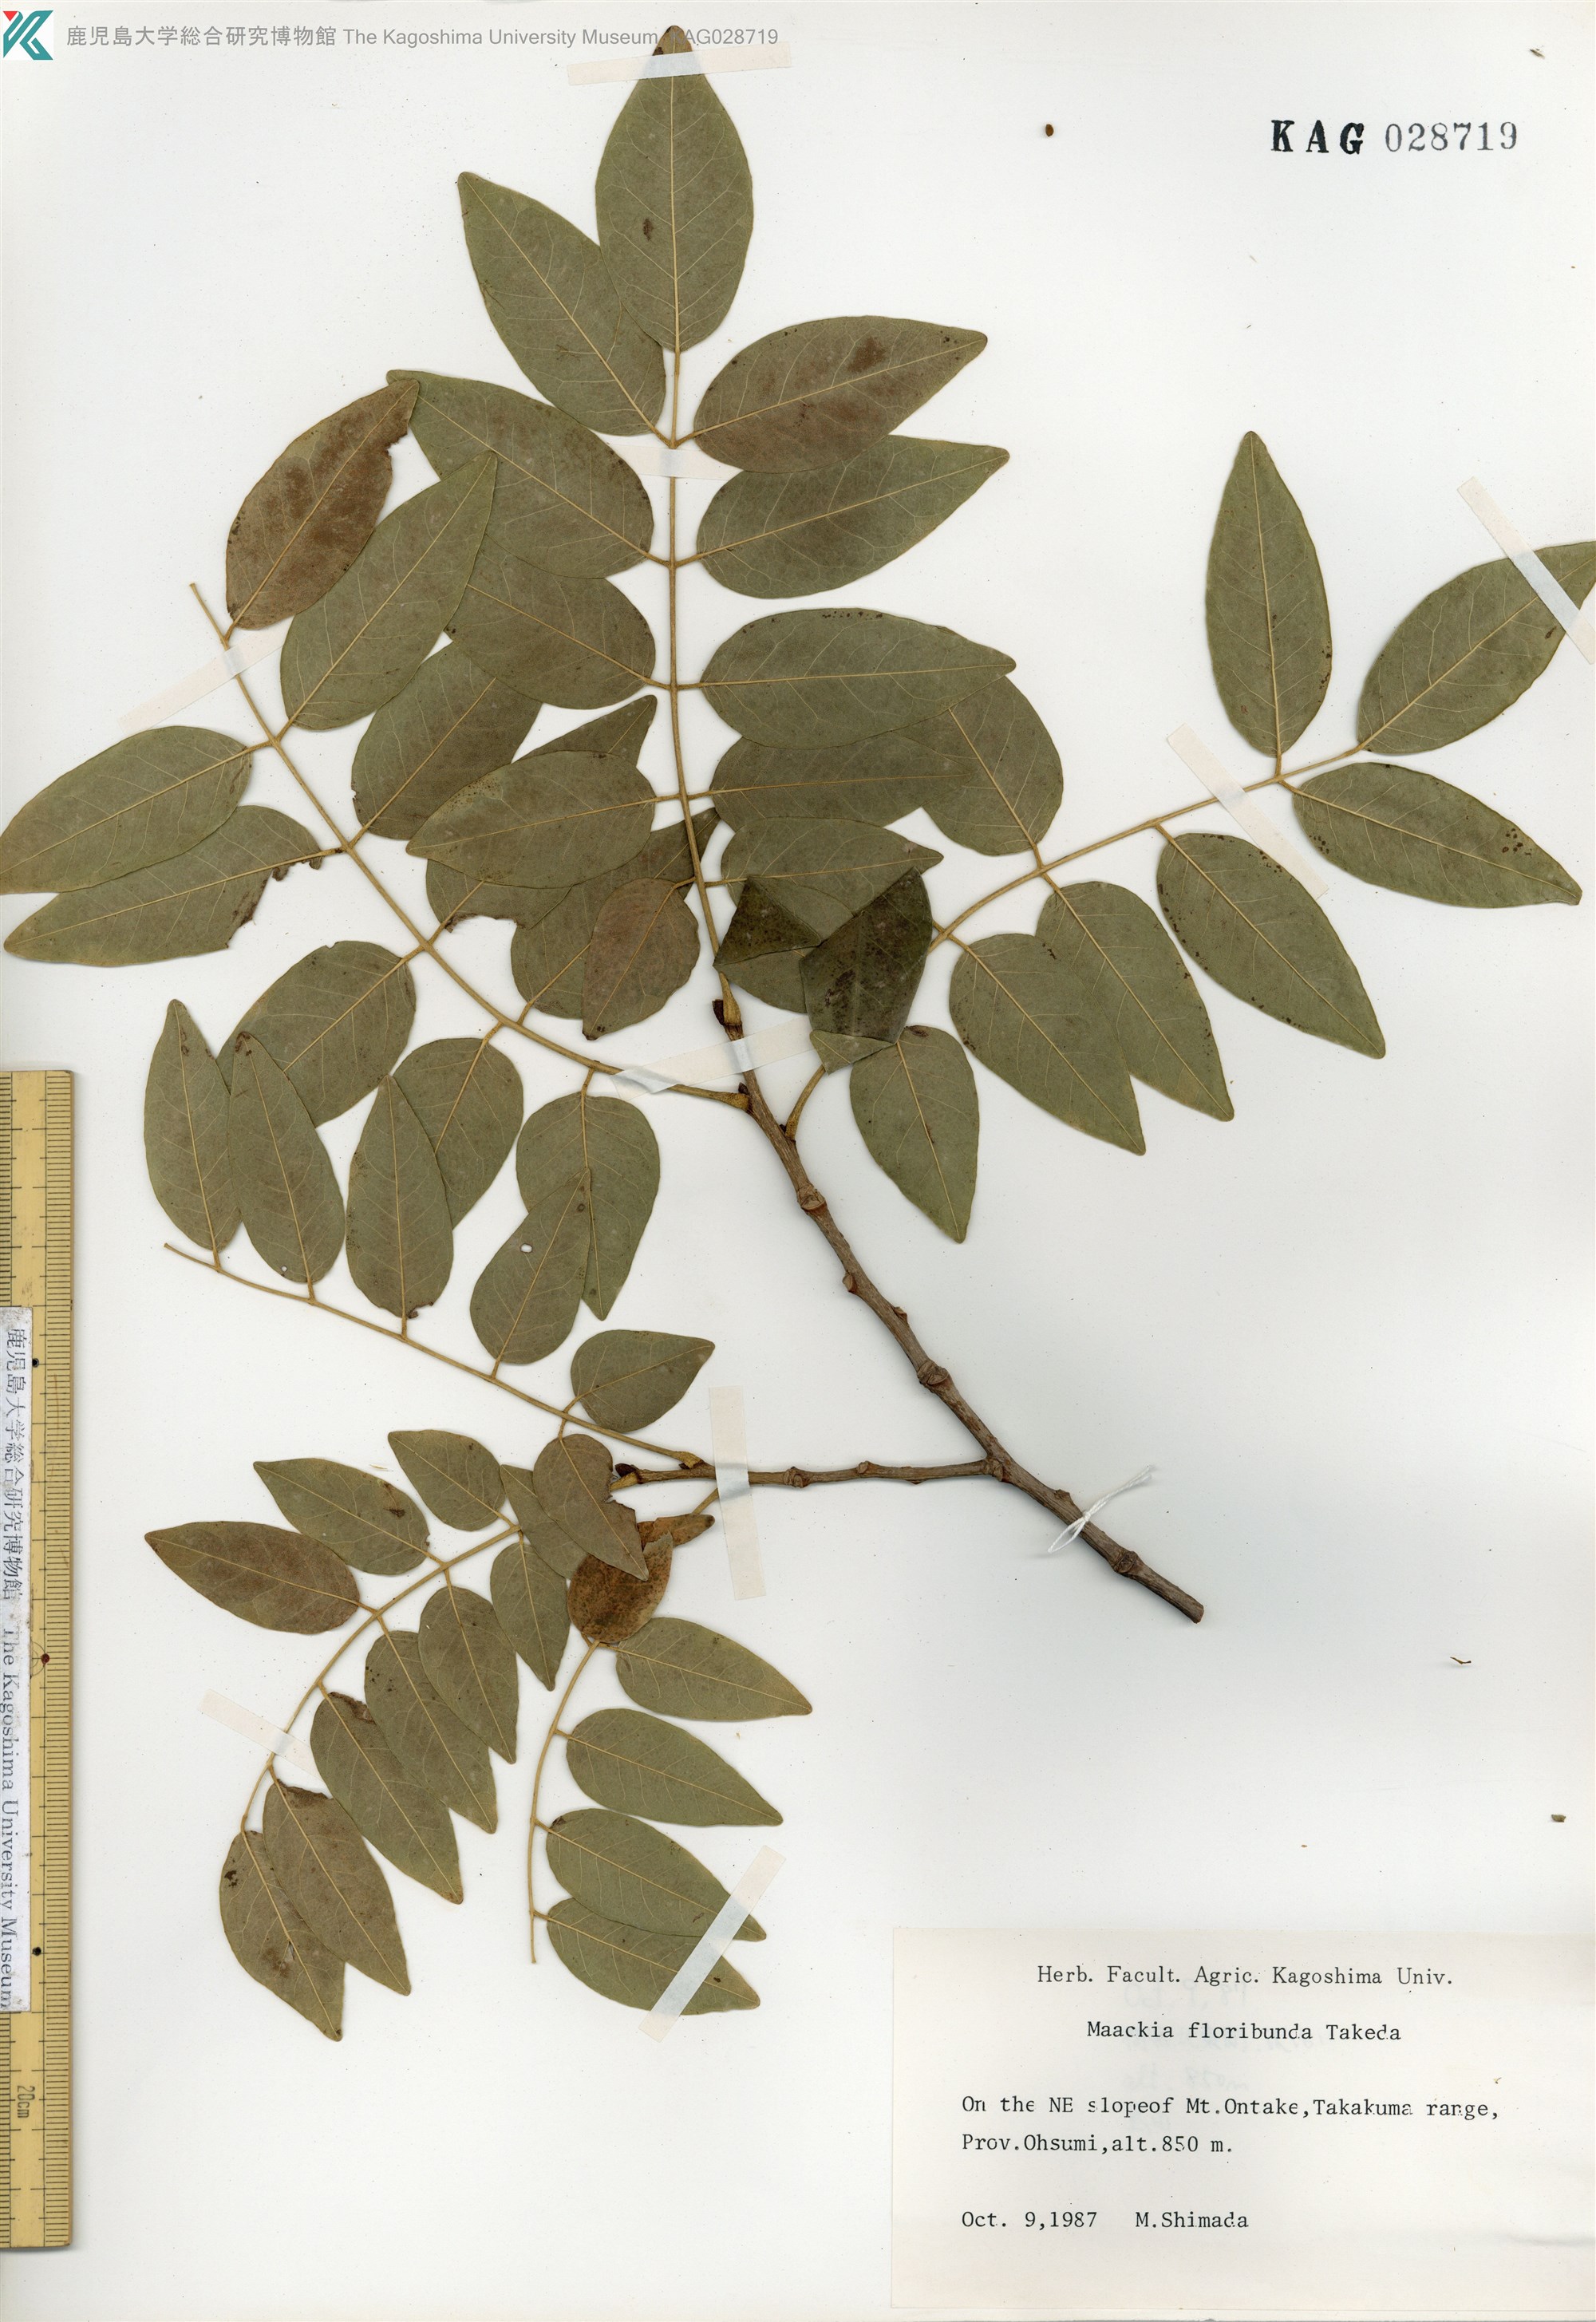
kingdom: Plantae
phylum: Tracheophyta
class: Magnoliopsida
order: Fabales
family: Fabaceae
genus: Maackia
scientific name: Maackia amurensis
